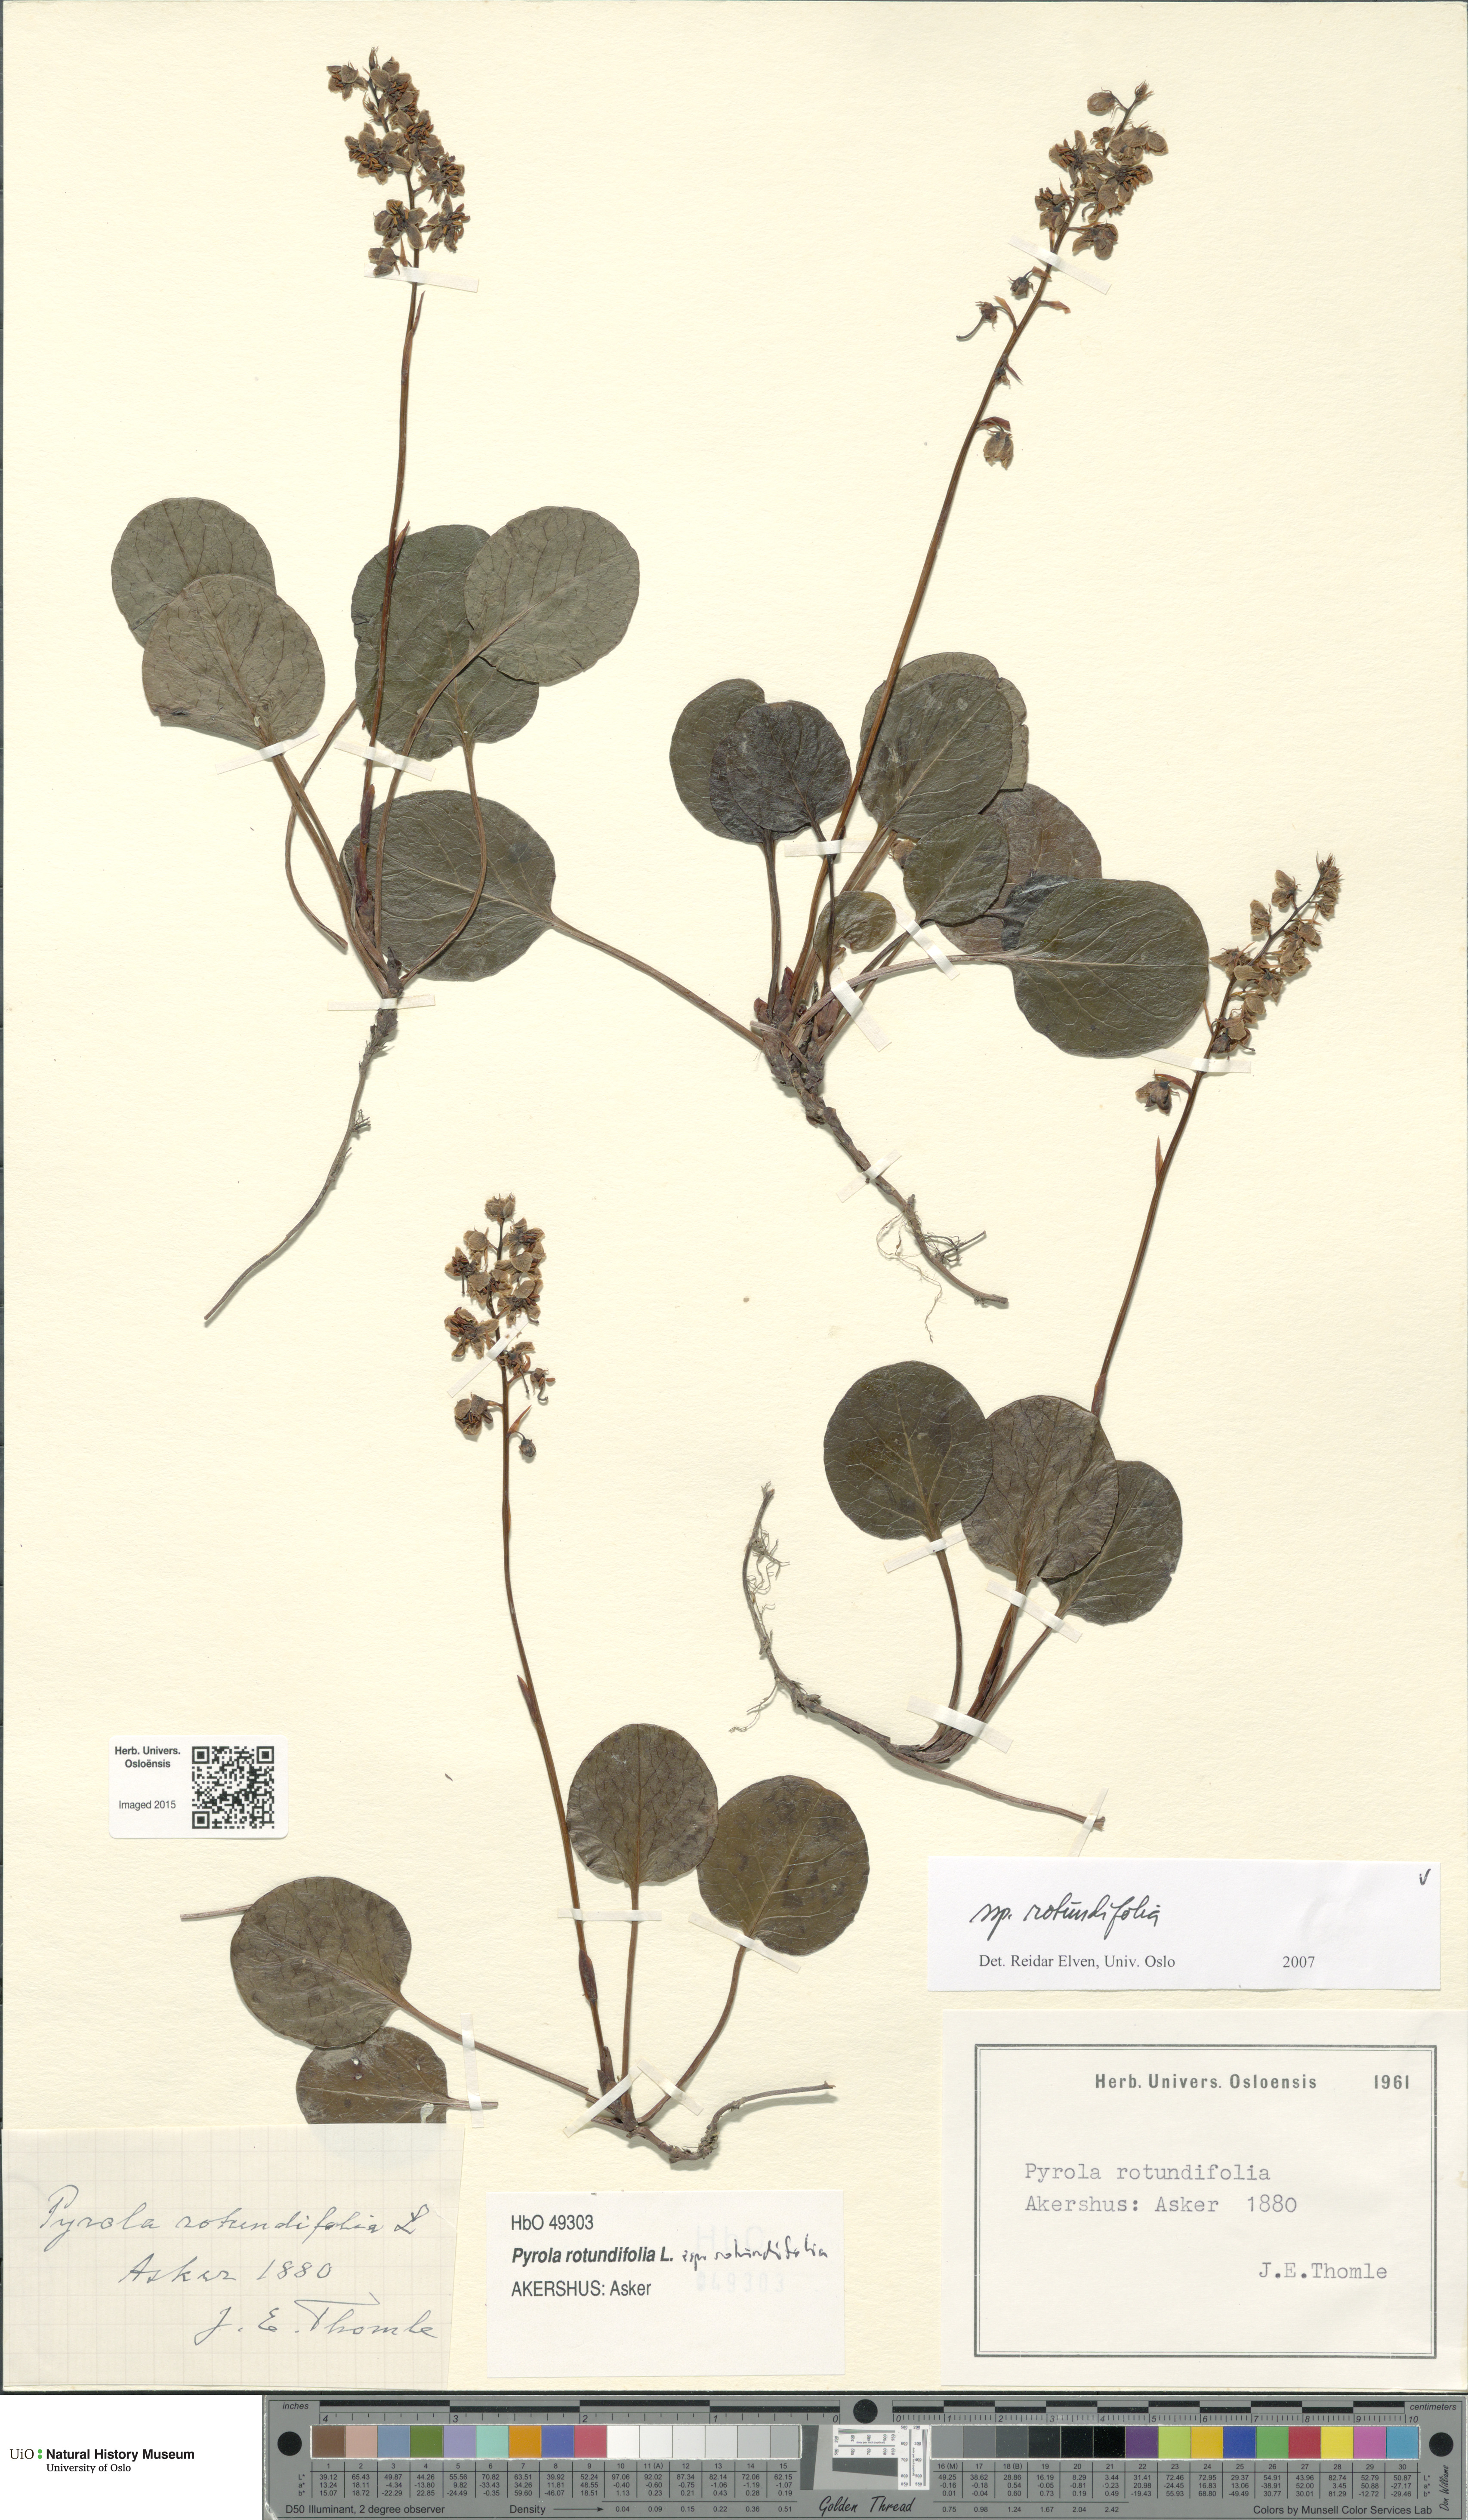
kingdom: Plantae
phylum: Tracheophyta
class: Magnoliopsida
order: Ericales
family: Ericaceae
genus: Pyrola
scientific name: Pyrola rotundifolia
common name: Round-leaved wintergreen
